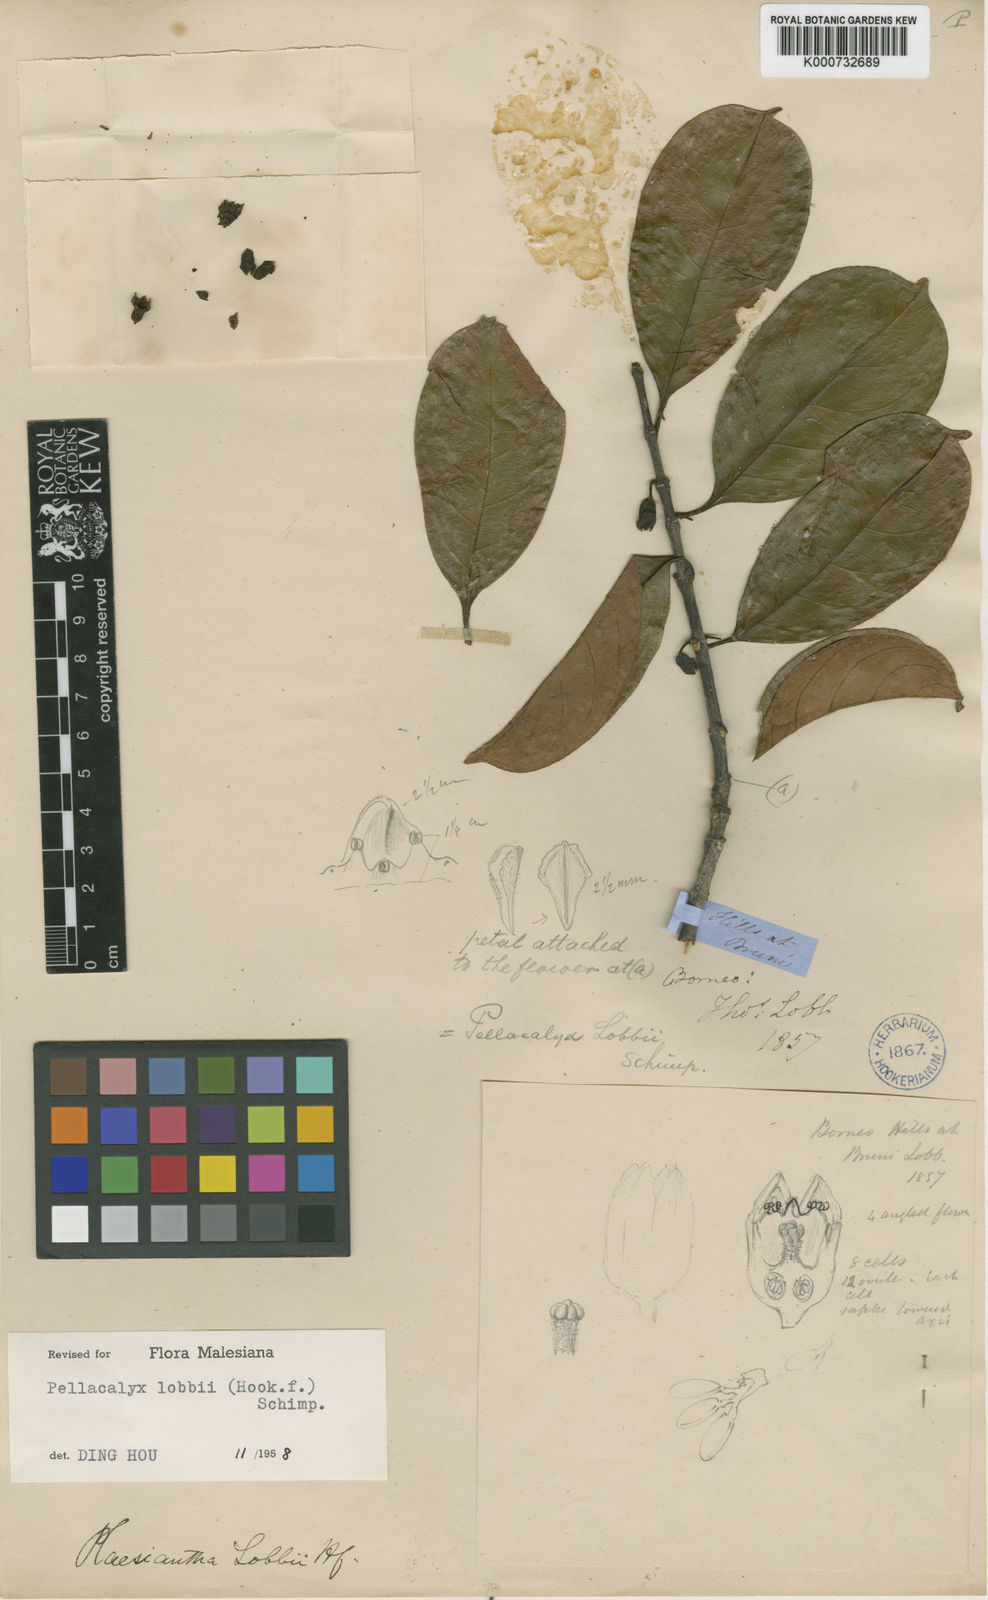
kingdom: Plantae
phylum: Tracheophyta
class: Magnoliopsida
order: Malpighiales
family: Rhizophoraceae
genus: Pellacalyx
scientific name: Pellacalyx
